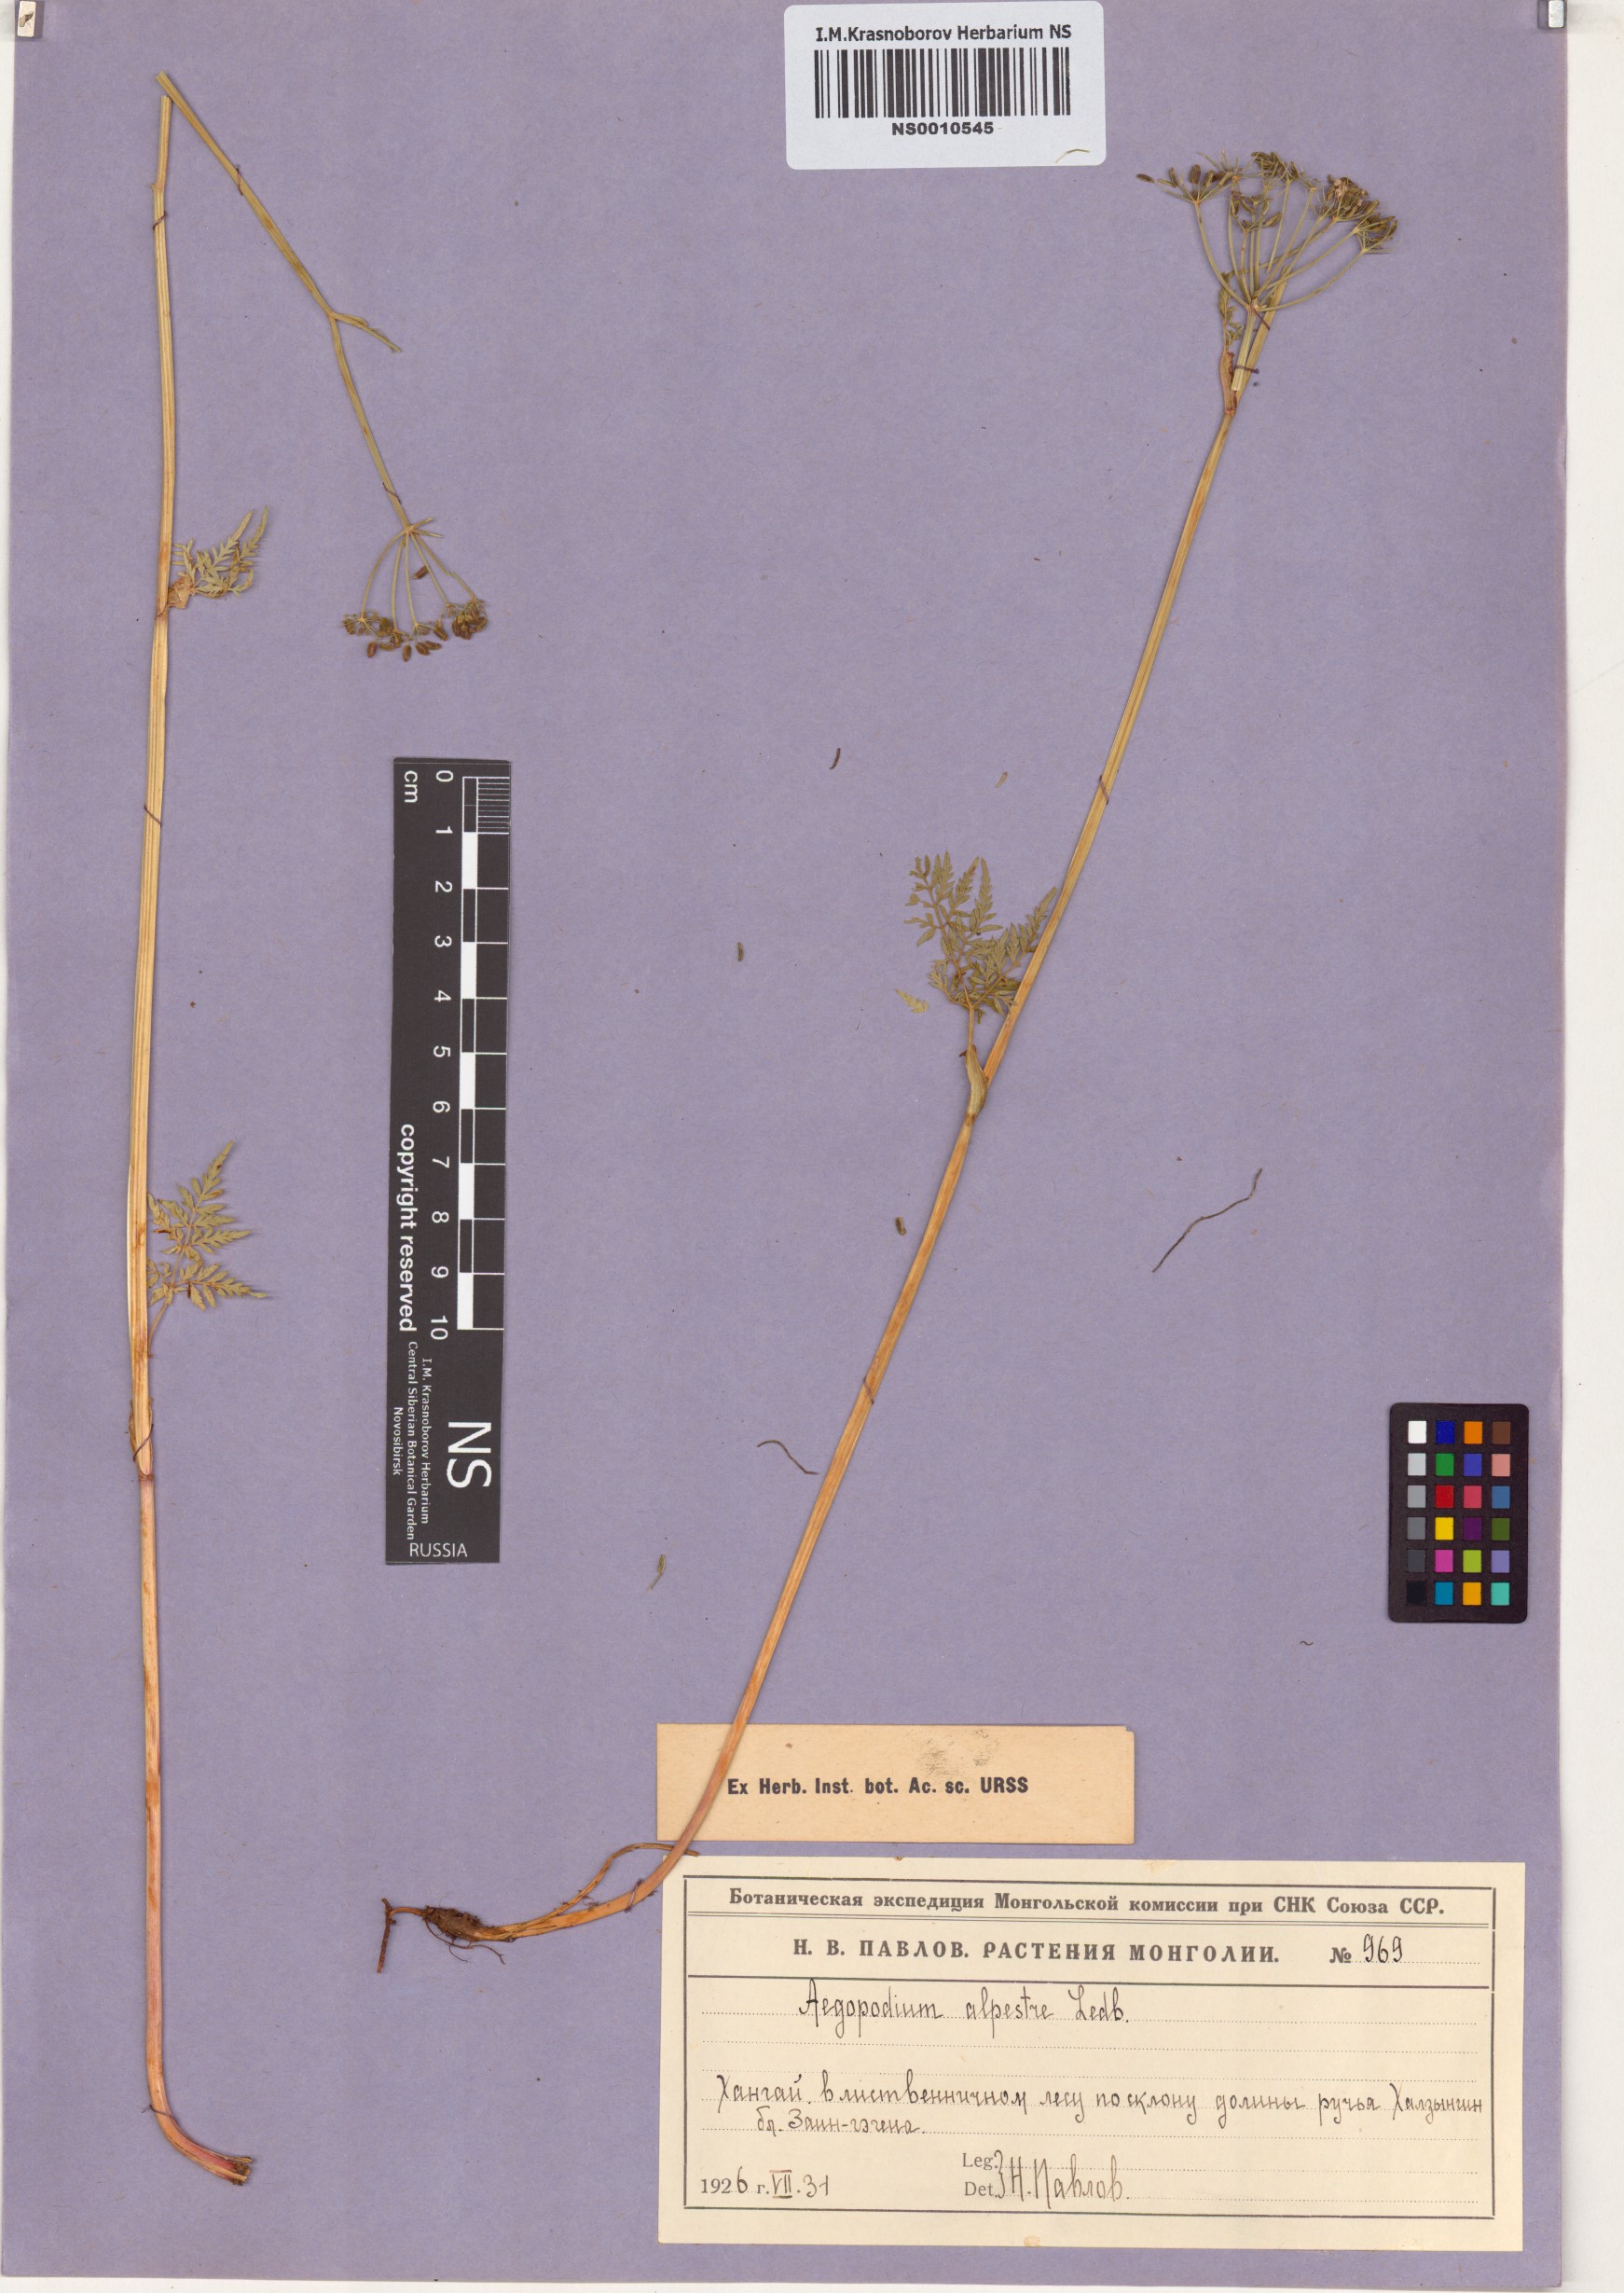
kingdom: Plantae
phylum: Tracheophyta
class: Magnoliopsida
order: Apiales
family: Apiaceae
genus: Aegopodium
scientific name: Aegopodium alpestre
